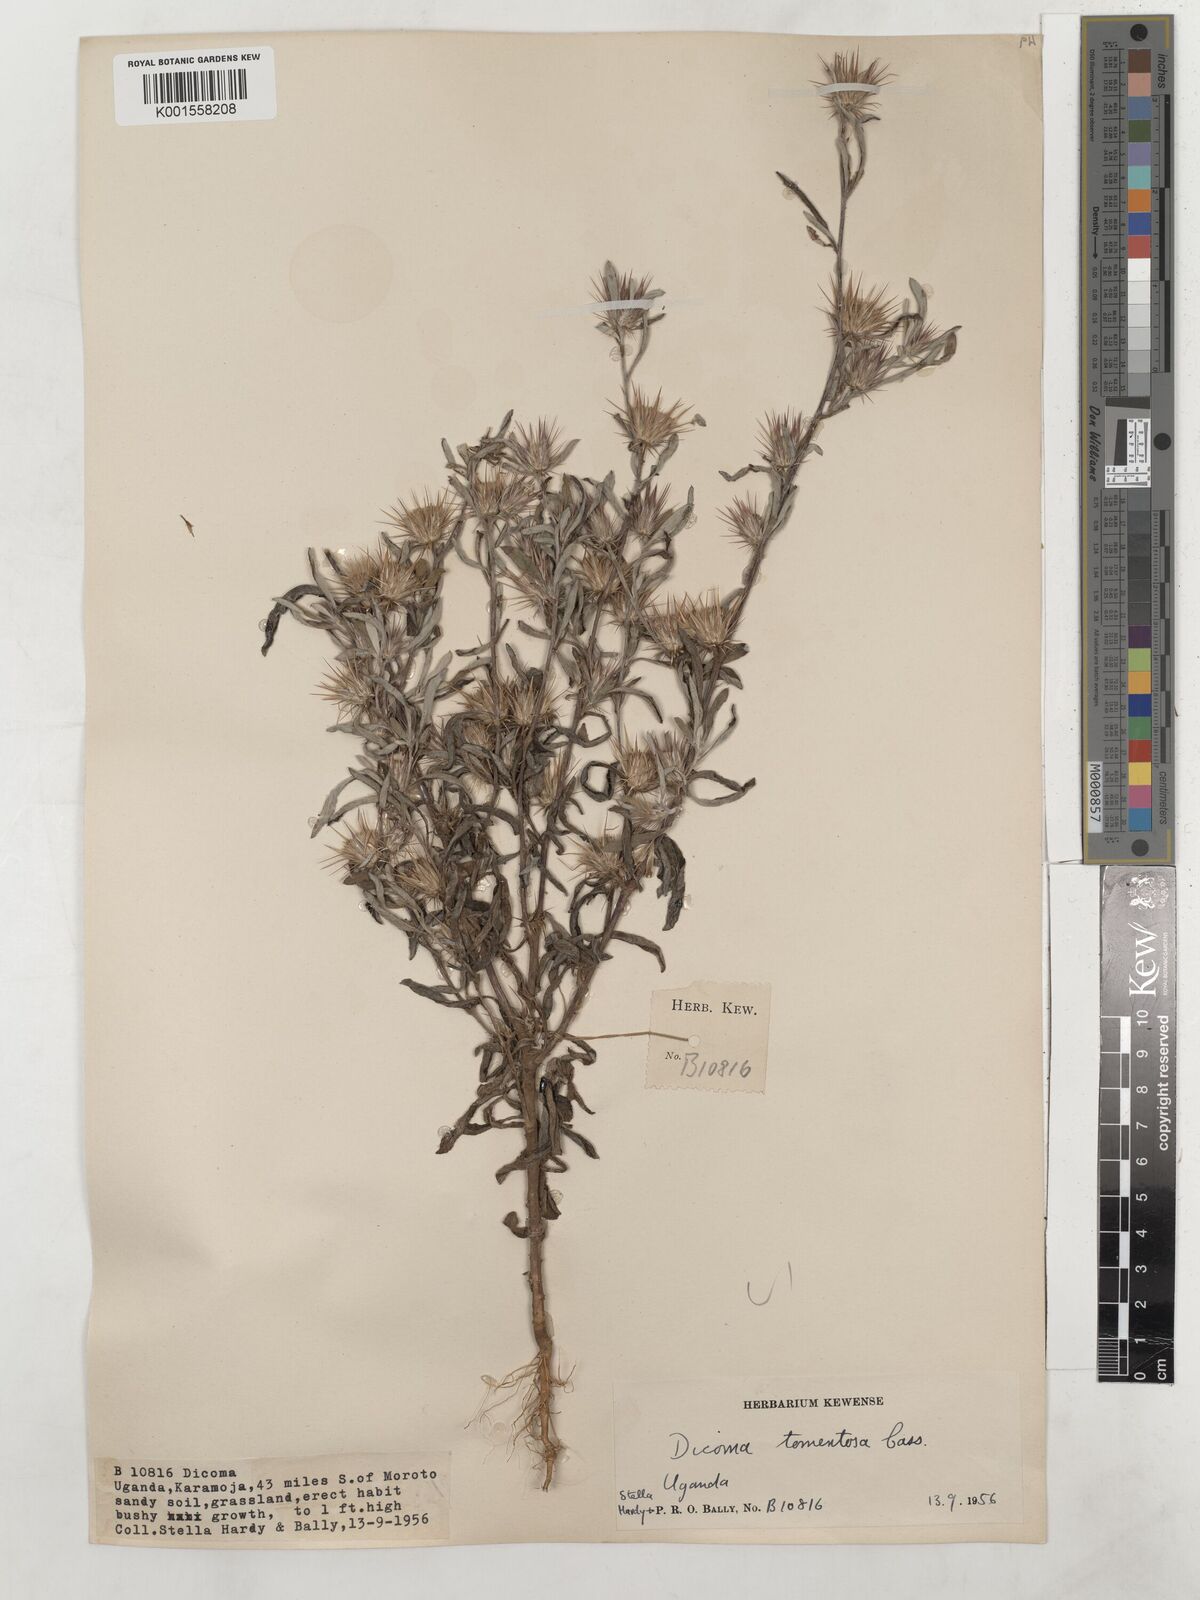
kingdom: Plantae
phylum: Tracheophyta
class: Magnoliopsida
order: Asterales
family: Asteraceae
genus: Dicoma
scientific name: Dicoma tomentosa
